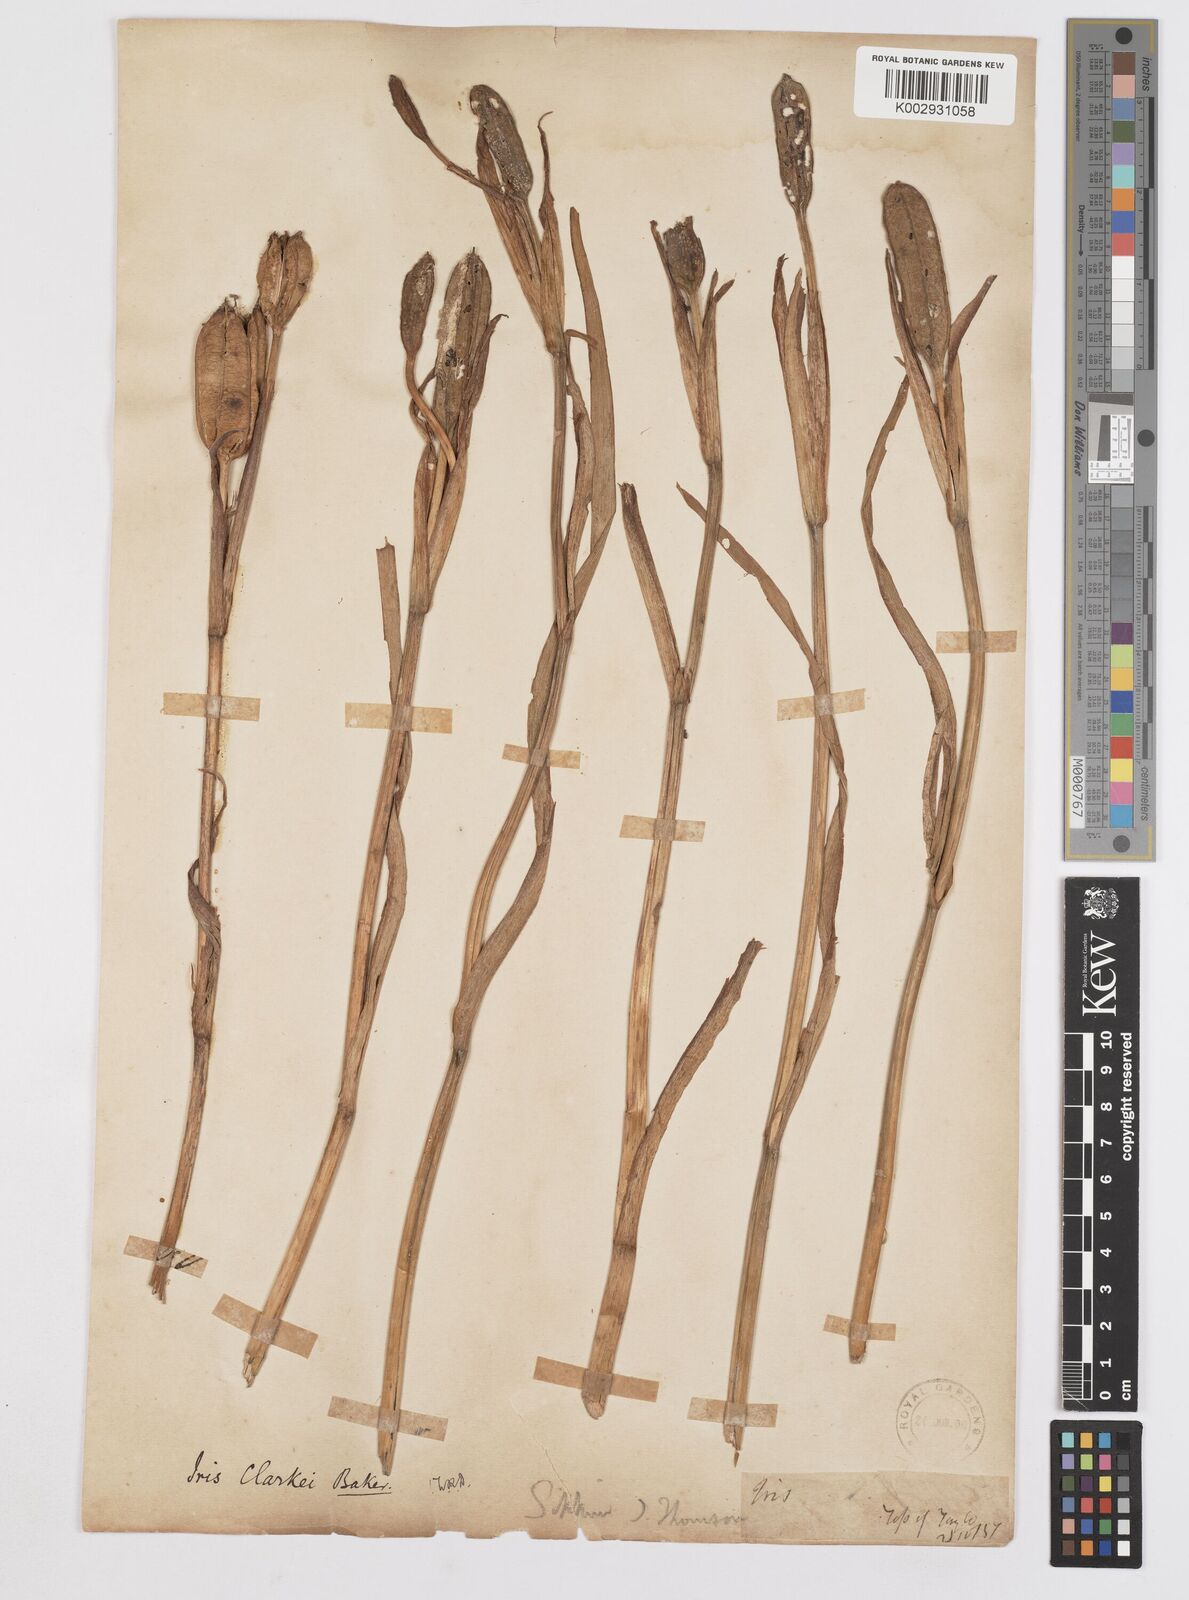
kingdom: Plantae
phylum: Tracheophyta
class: Liliopsida
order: Asparagales
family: Iridaceae
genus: Iris
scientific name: Iris clarkei
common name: Tibet iris
